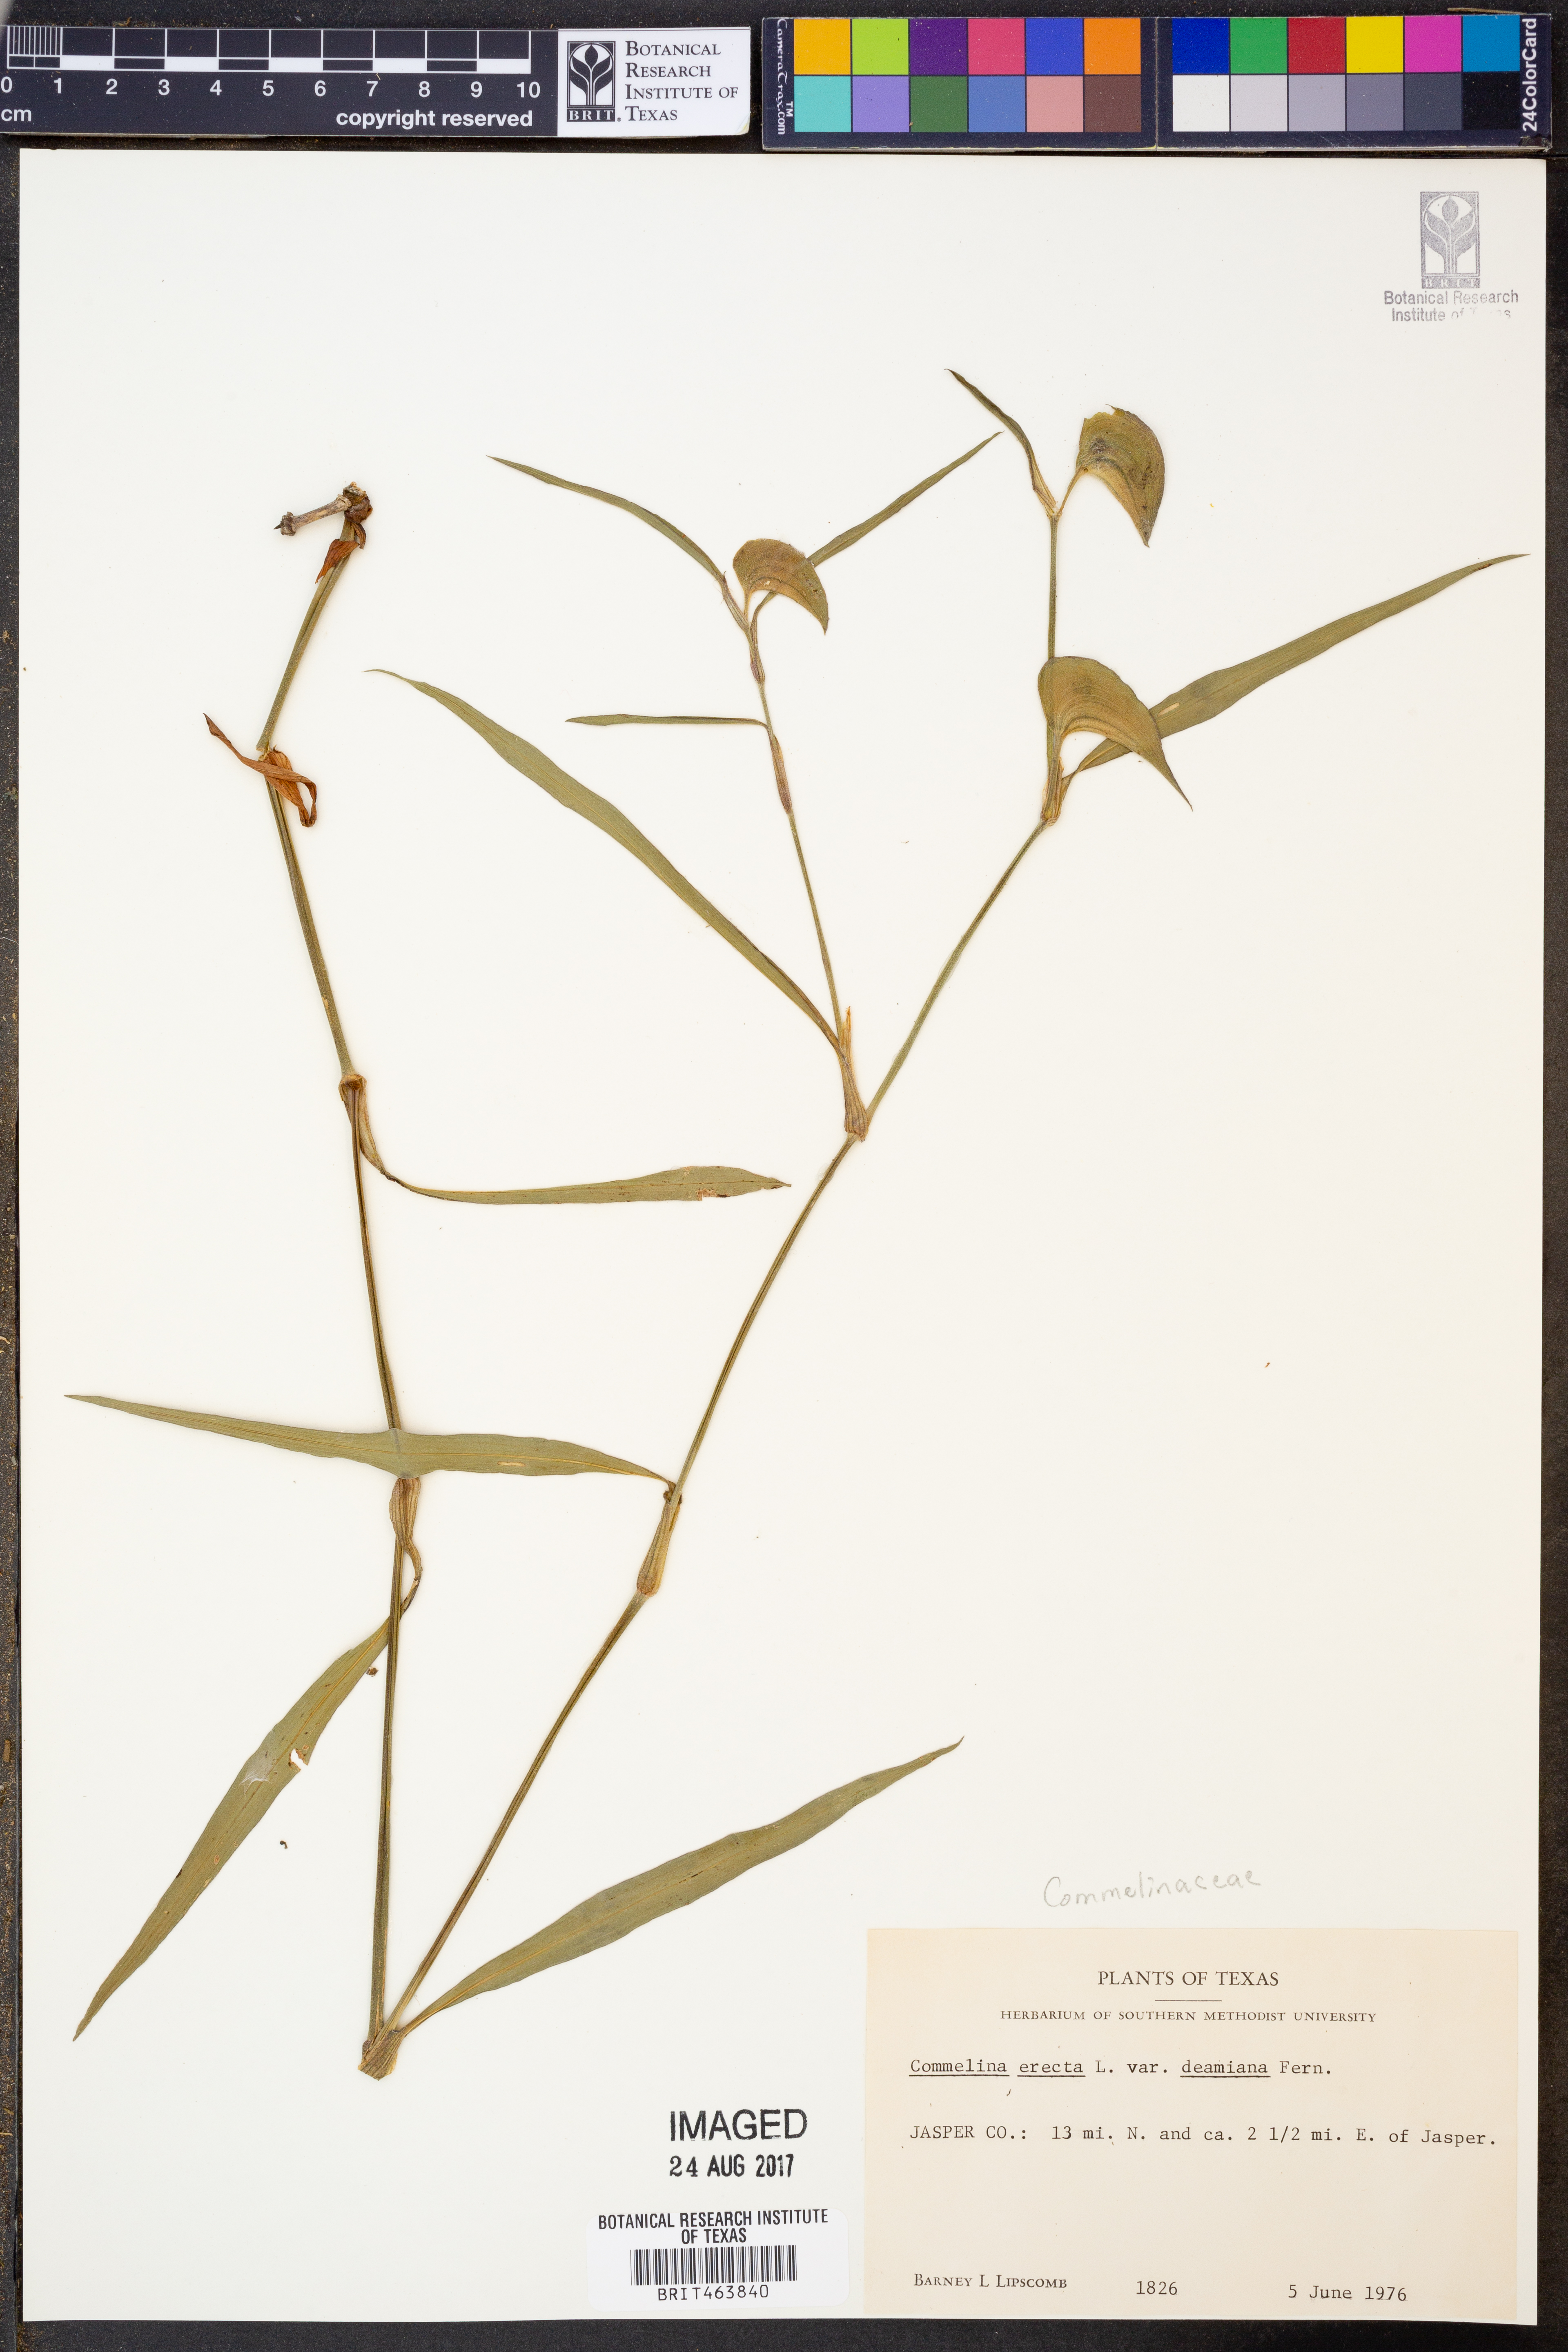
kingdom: Plantae
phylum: Tracheophyta
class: Liliopsida
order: Commelinales
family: Commelinaceae
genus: Commelina
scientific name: Commelina erecta
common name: Blousel blommetjie
